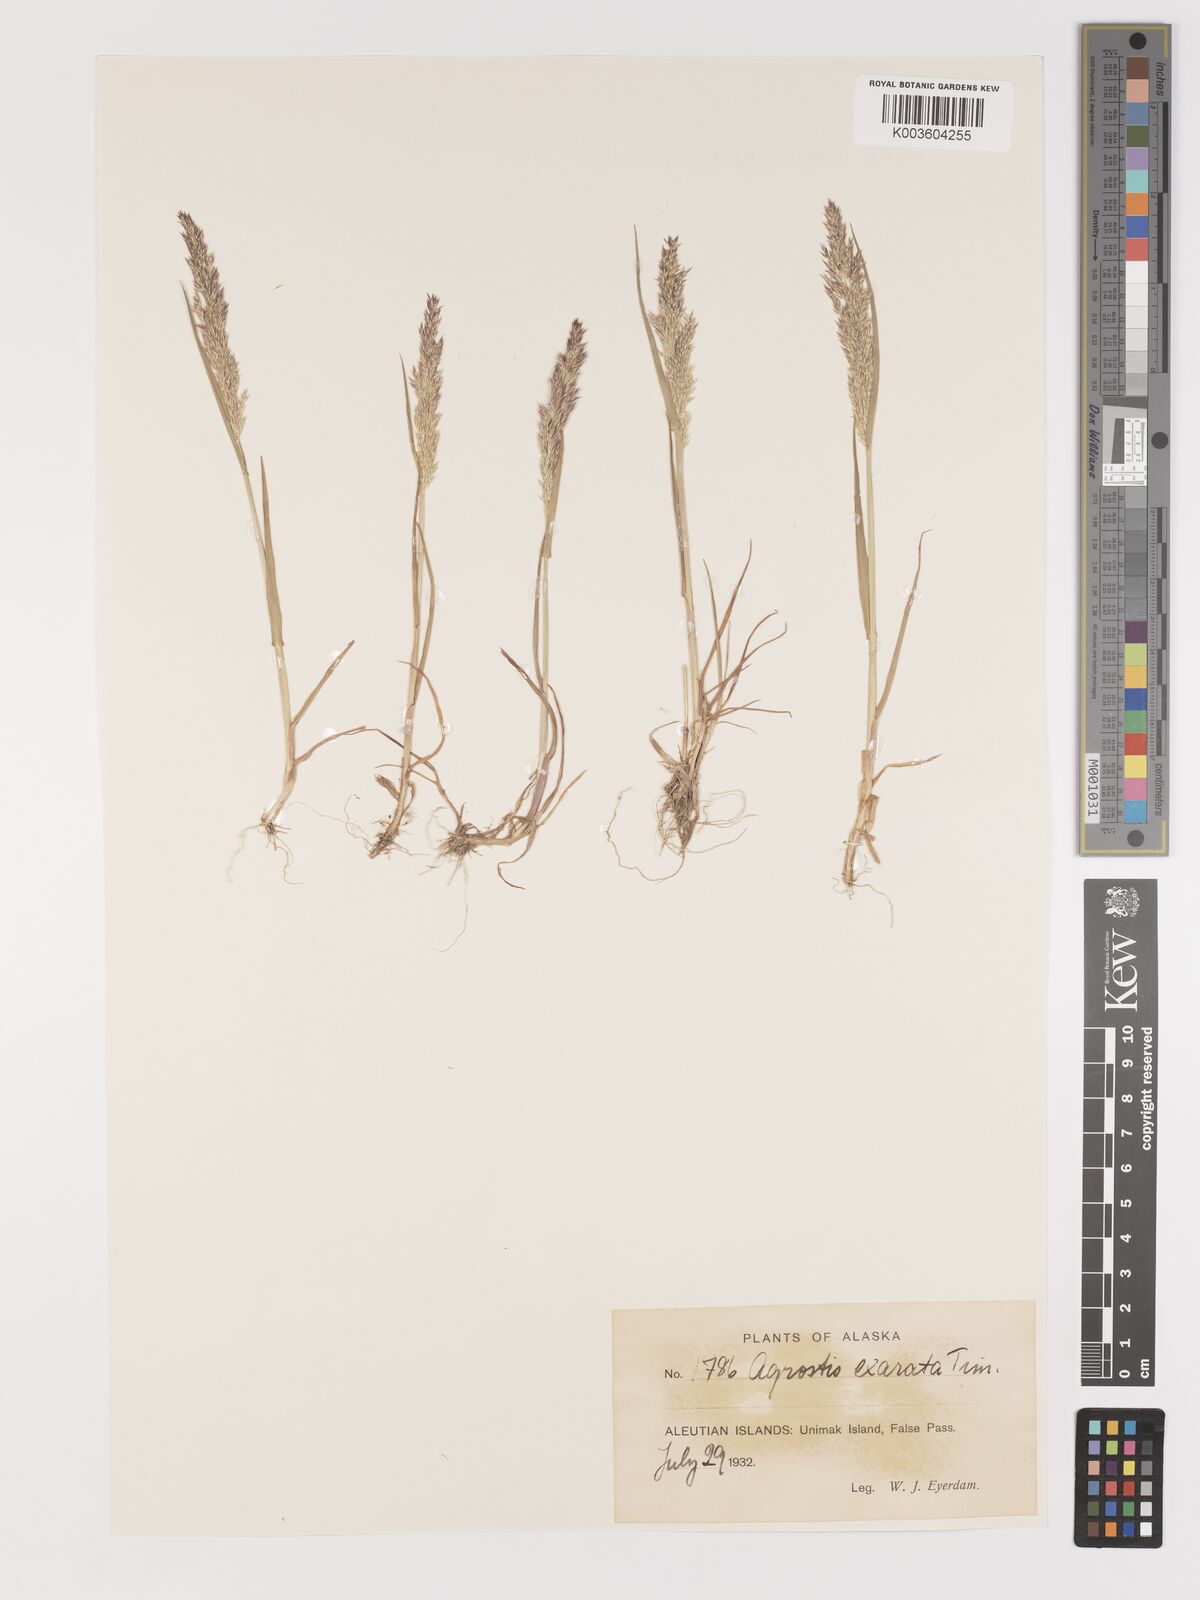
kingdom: Plantae
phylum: Tracheophyta
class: Liliopsida
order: Poales
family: Poaceae
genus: Agrostis
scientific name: Agrostis exarata
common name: Spike bent
